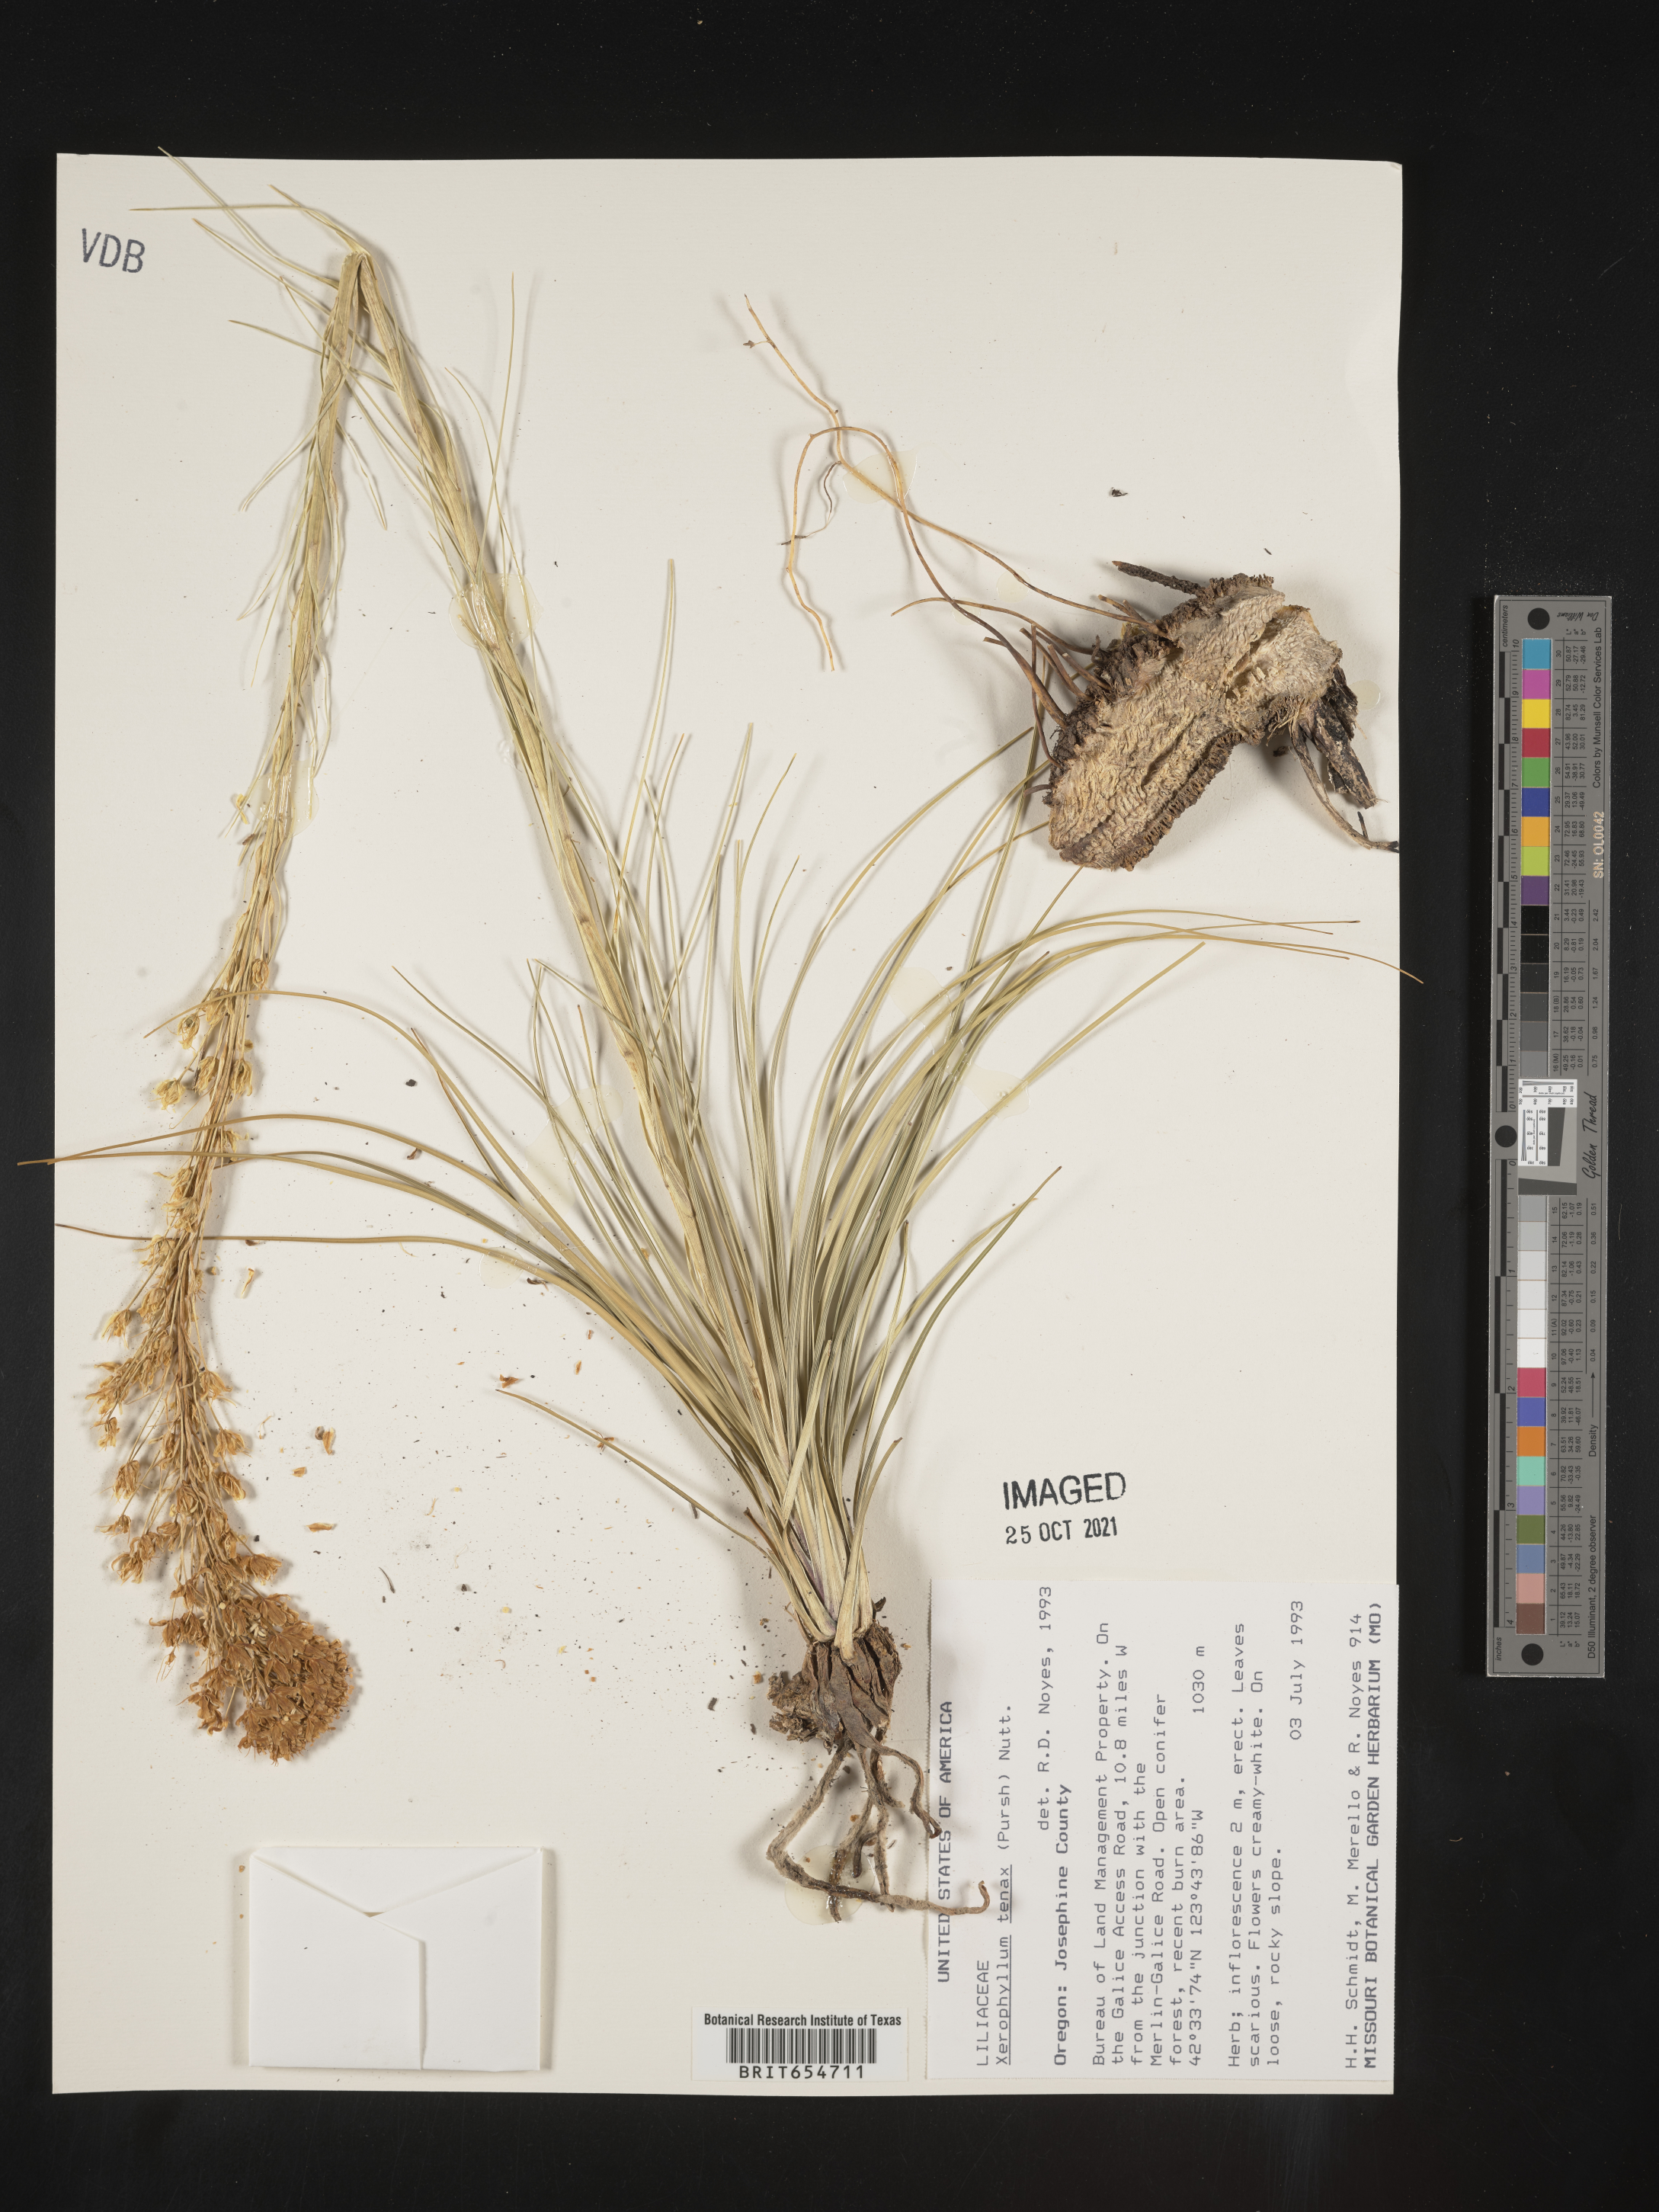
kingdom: Plantae
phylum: Tracheophyta
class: Liliopsida
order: Liliales
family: Melanthiaceae
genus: Xerophyllum
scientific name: Xerophyllum
